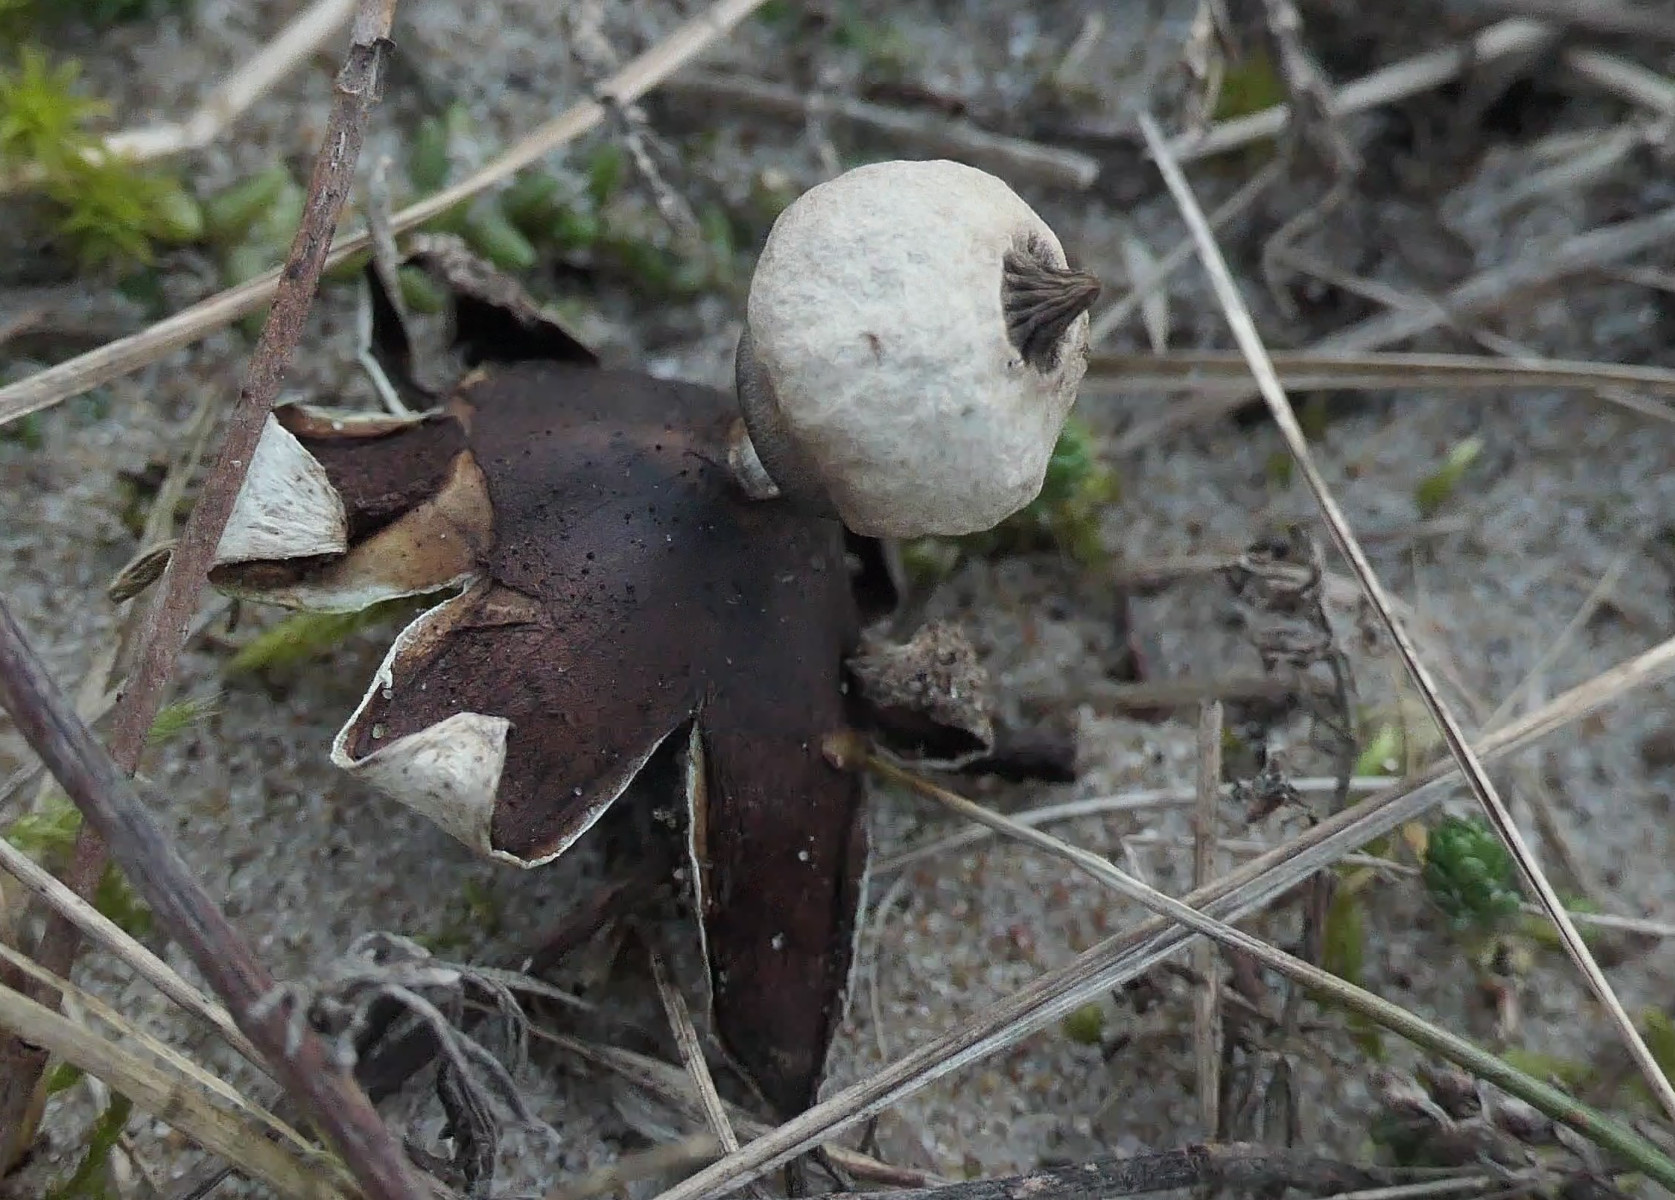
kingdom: Fungi
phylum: Basidiomycota
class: Agaricomycetes
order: Geastrales
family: Geastraceae
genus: Geastrum
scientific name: Geastrum striatum
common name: dværg-stjernebold
